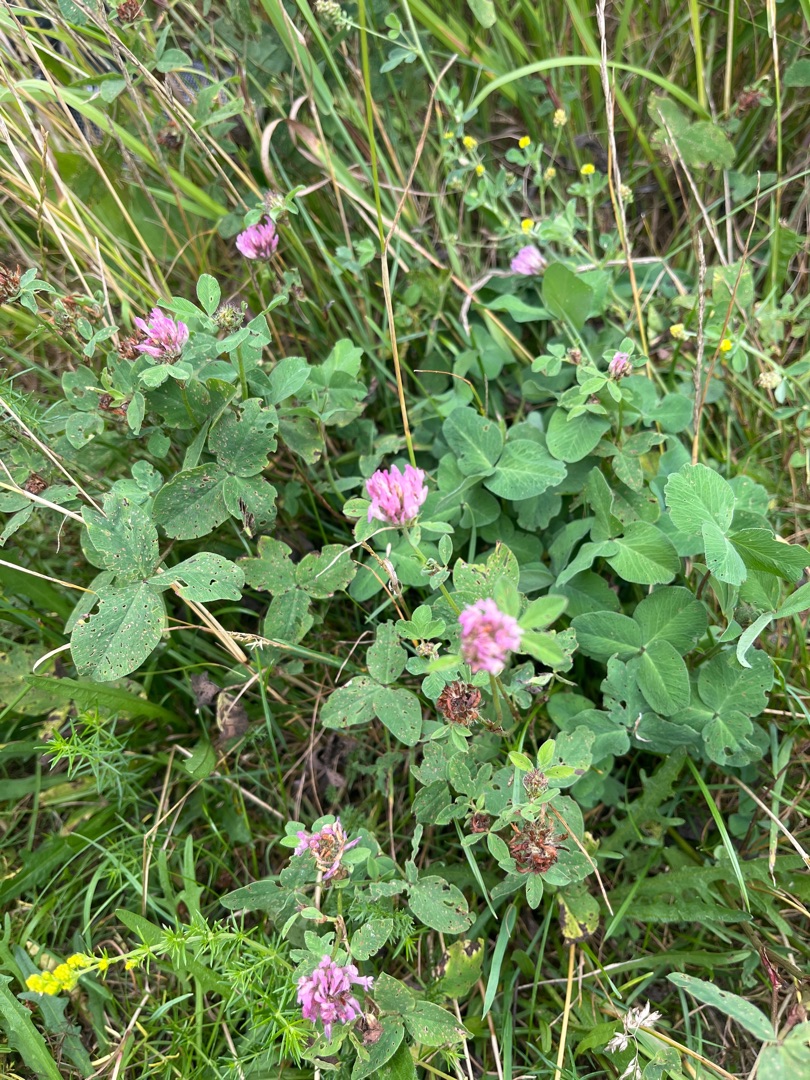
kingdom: Plantae
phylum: Tracheophyta
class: Magnoliopsida
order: Fabales
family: Fabaceae
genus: Trifolium
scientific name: Trifolium pratense
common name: Rød-kløver
